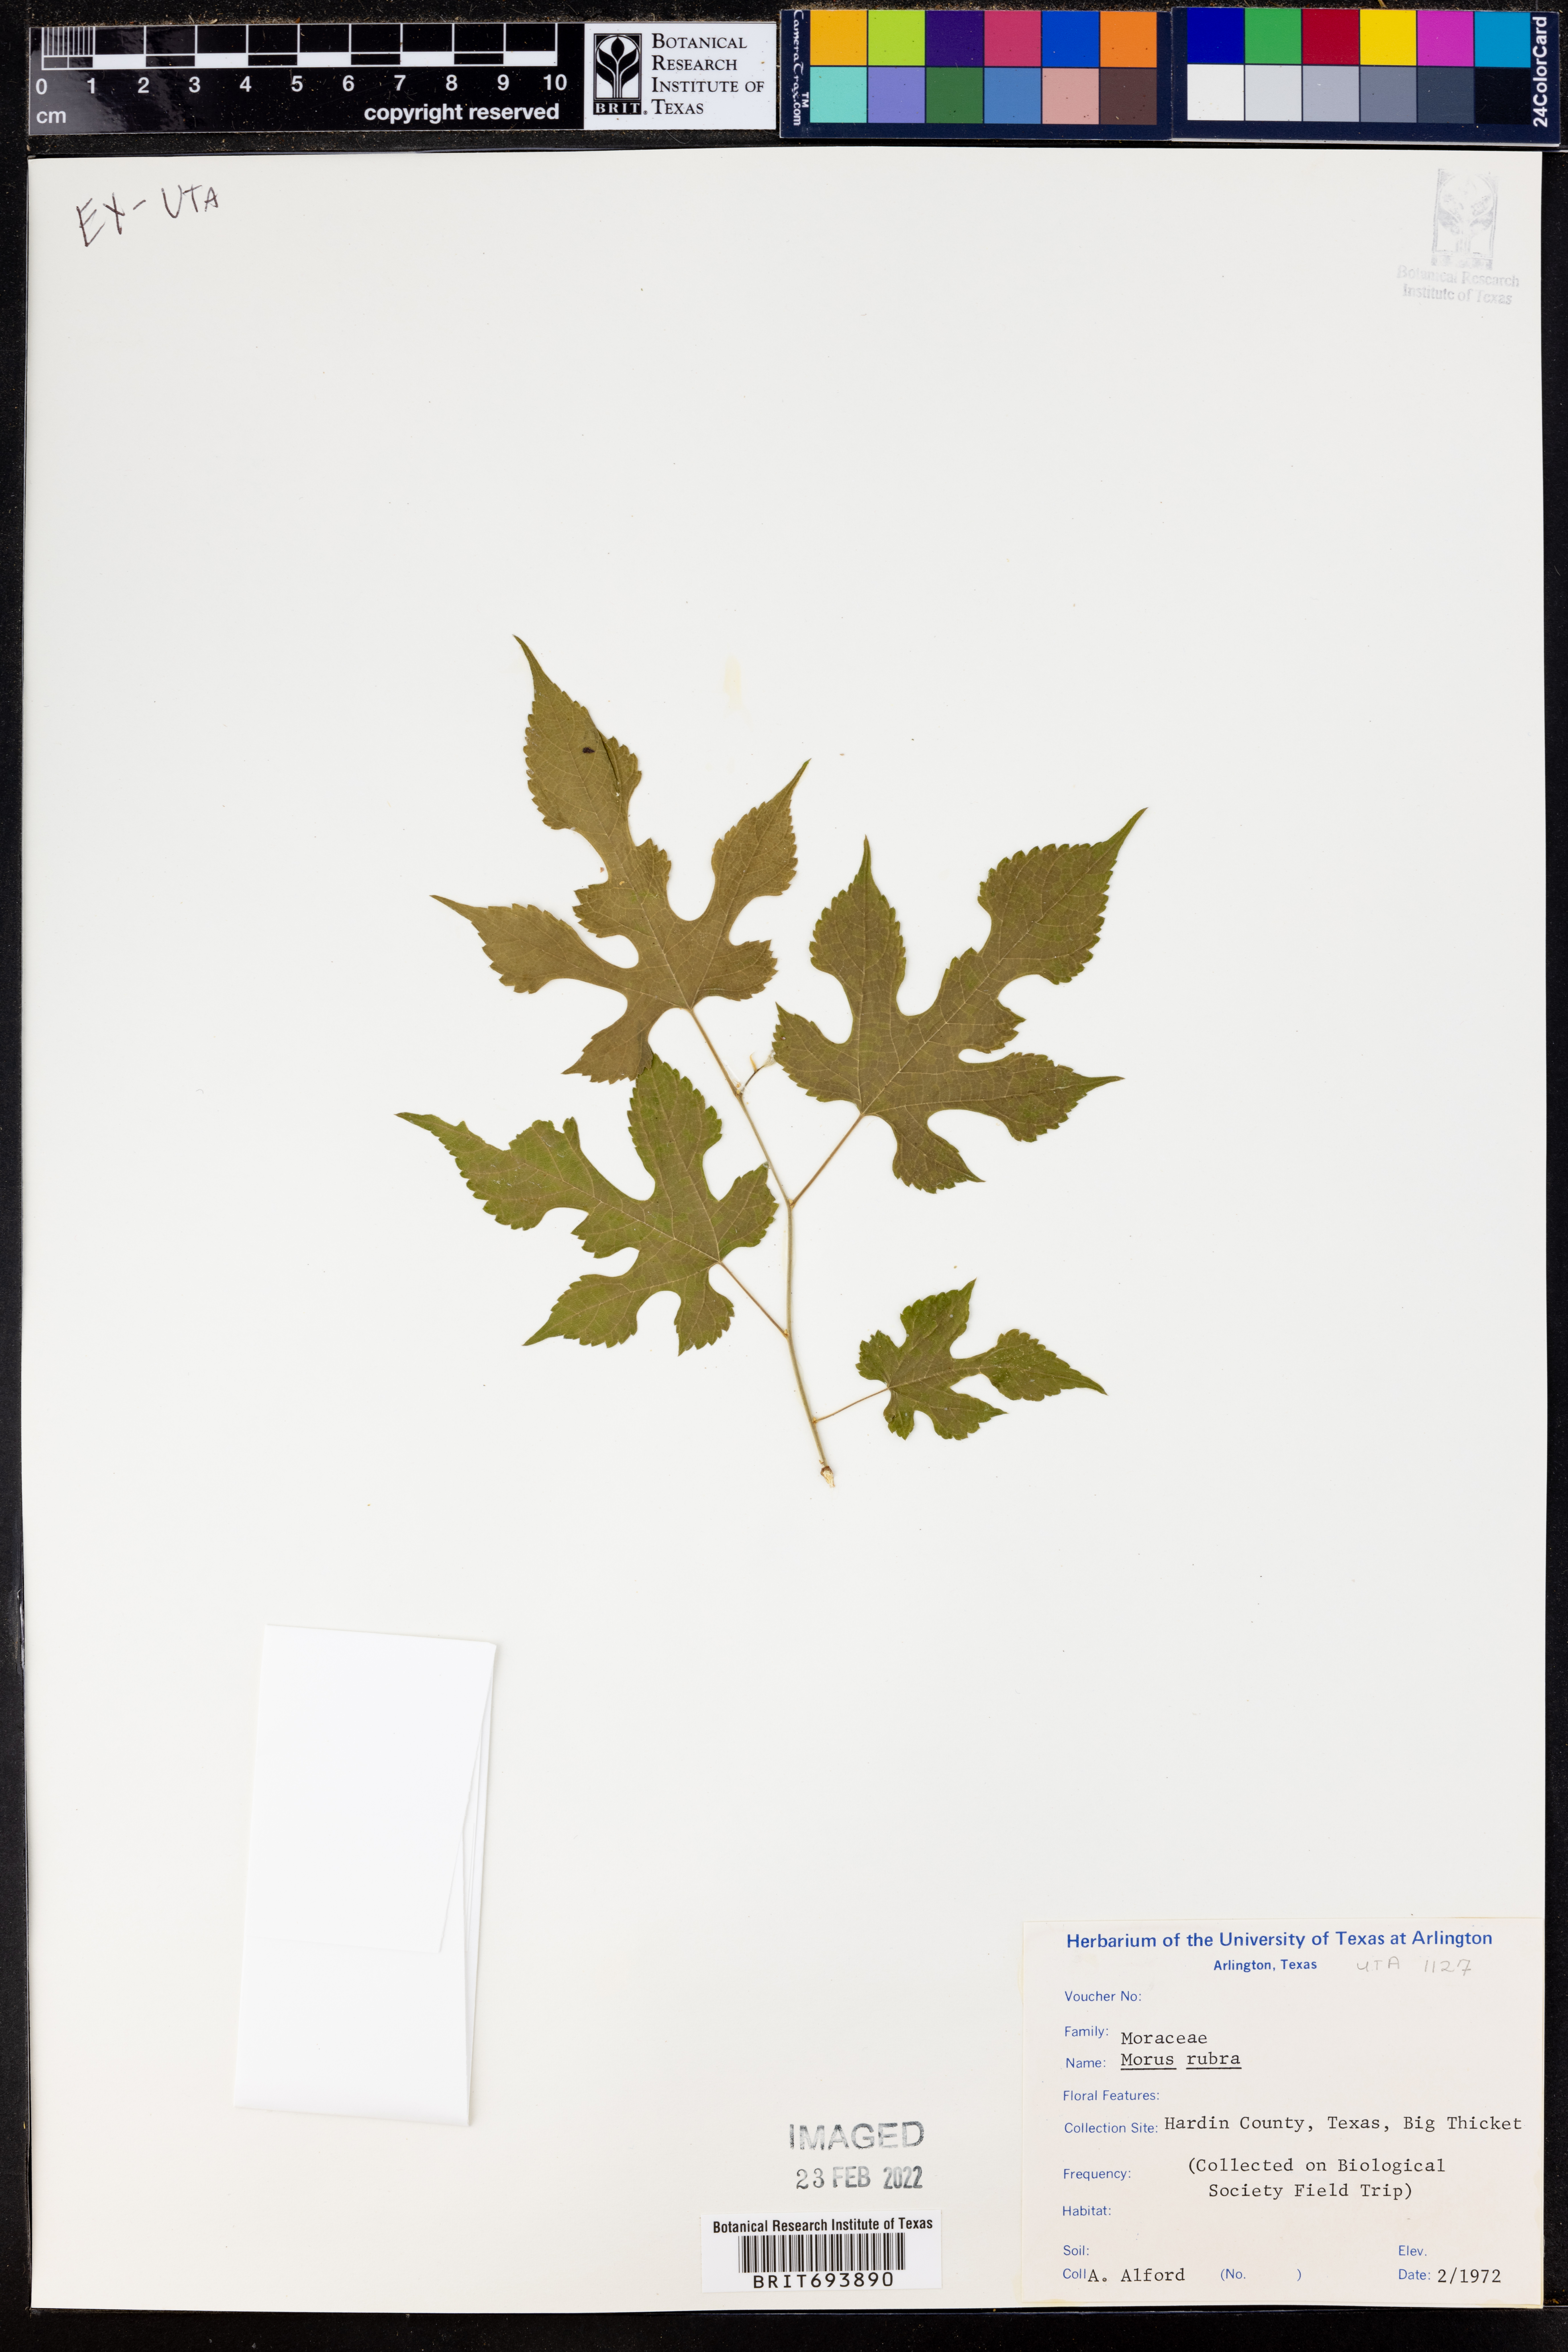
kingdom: Plantae
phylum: Tracheophyta
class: Magnoliopsida
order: Rosales
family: Moraceae
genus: Morus
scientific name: Morus rubra
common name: Red mulberry
